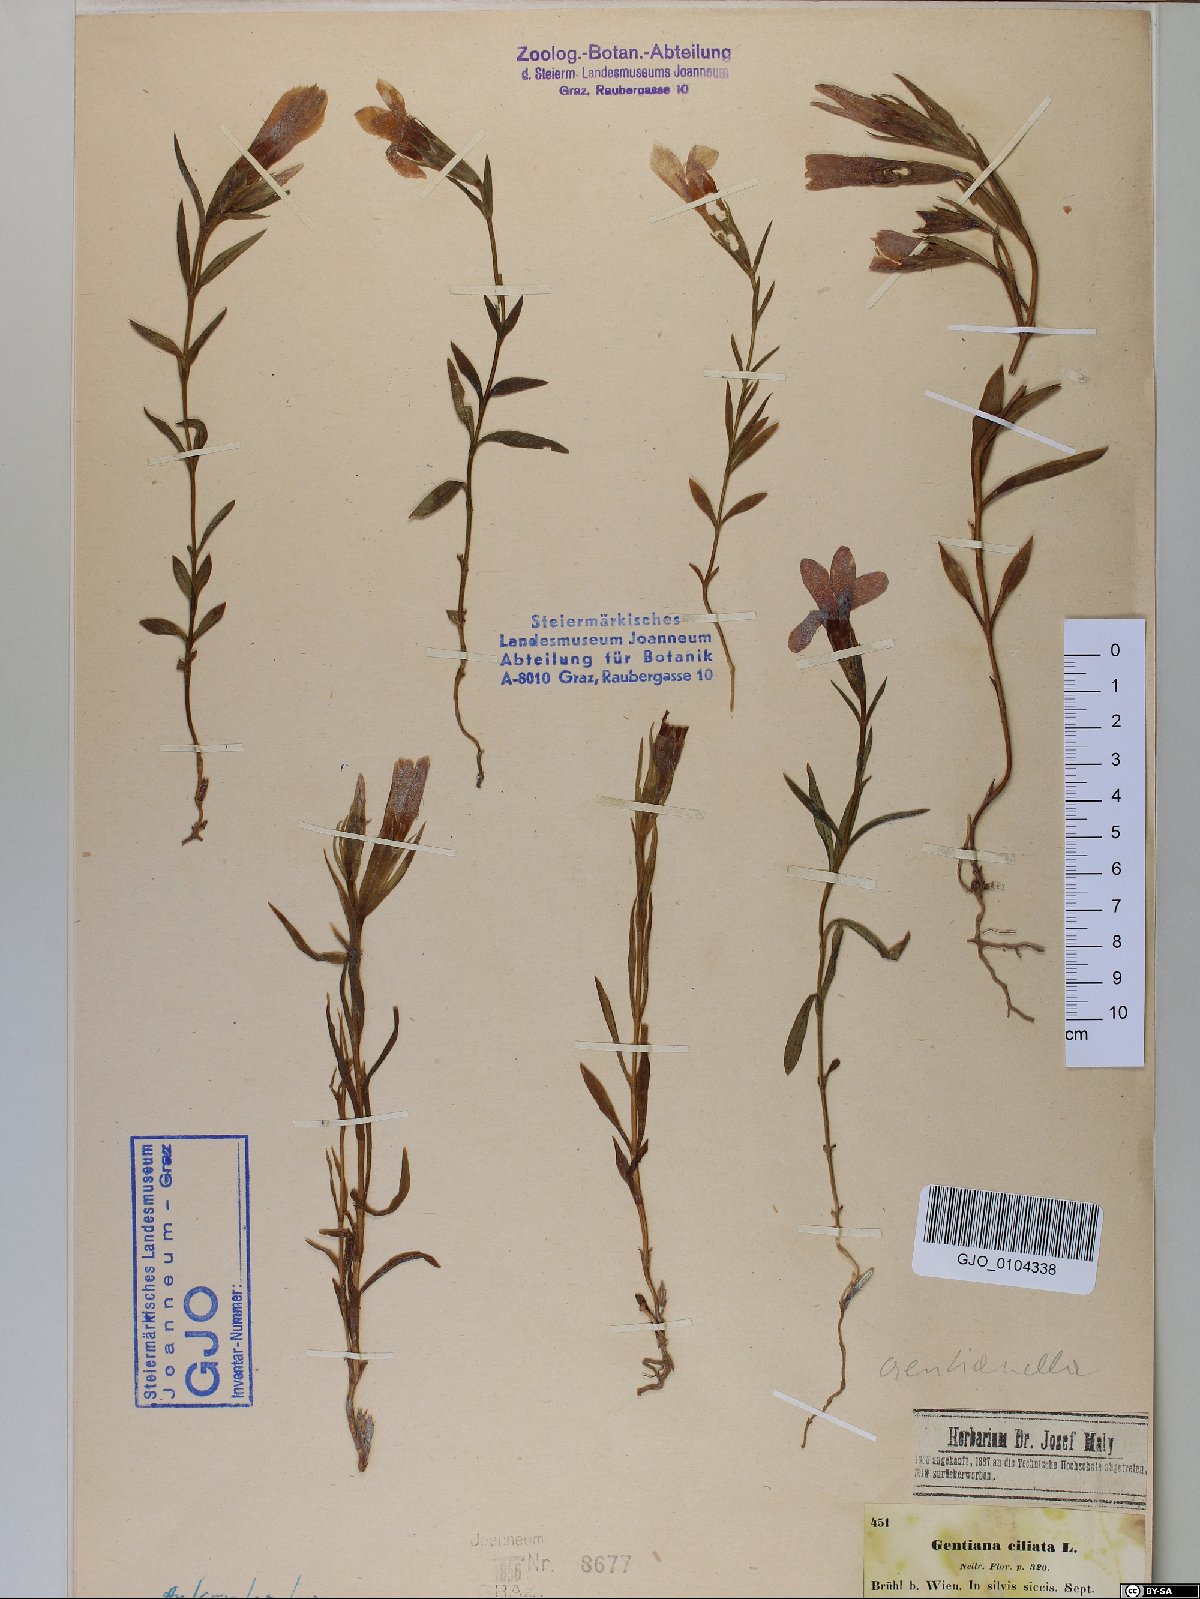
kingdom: Plantae
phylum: Tracheophyta
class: Magnoliopsida
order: Gentianales
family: Gentianaceae
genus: Gentianopsis
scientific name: Gentianopsis ciliata
